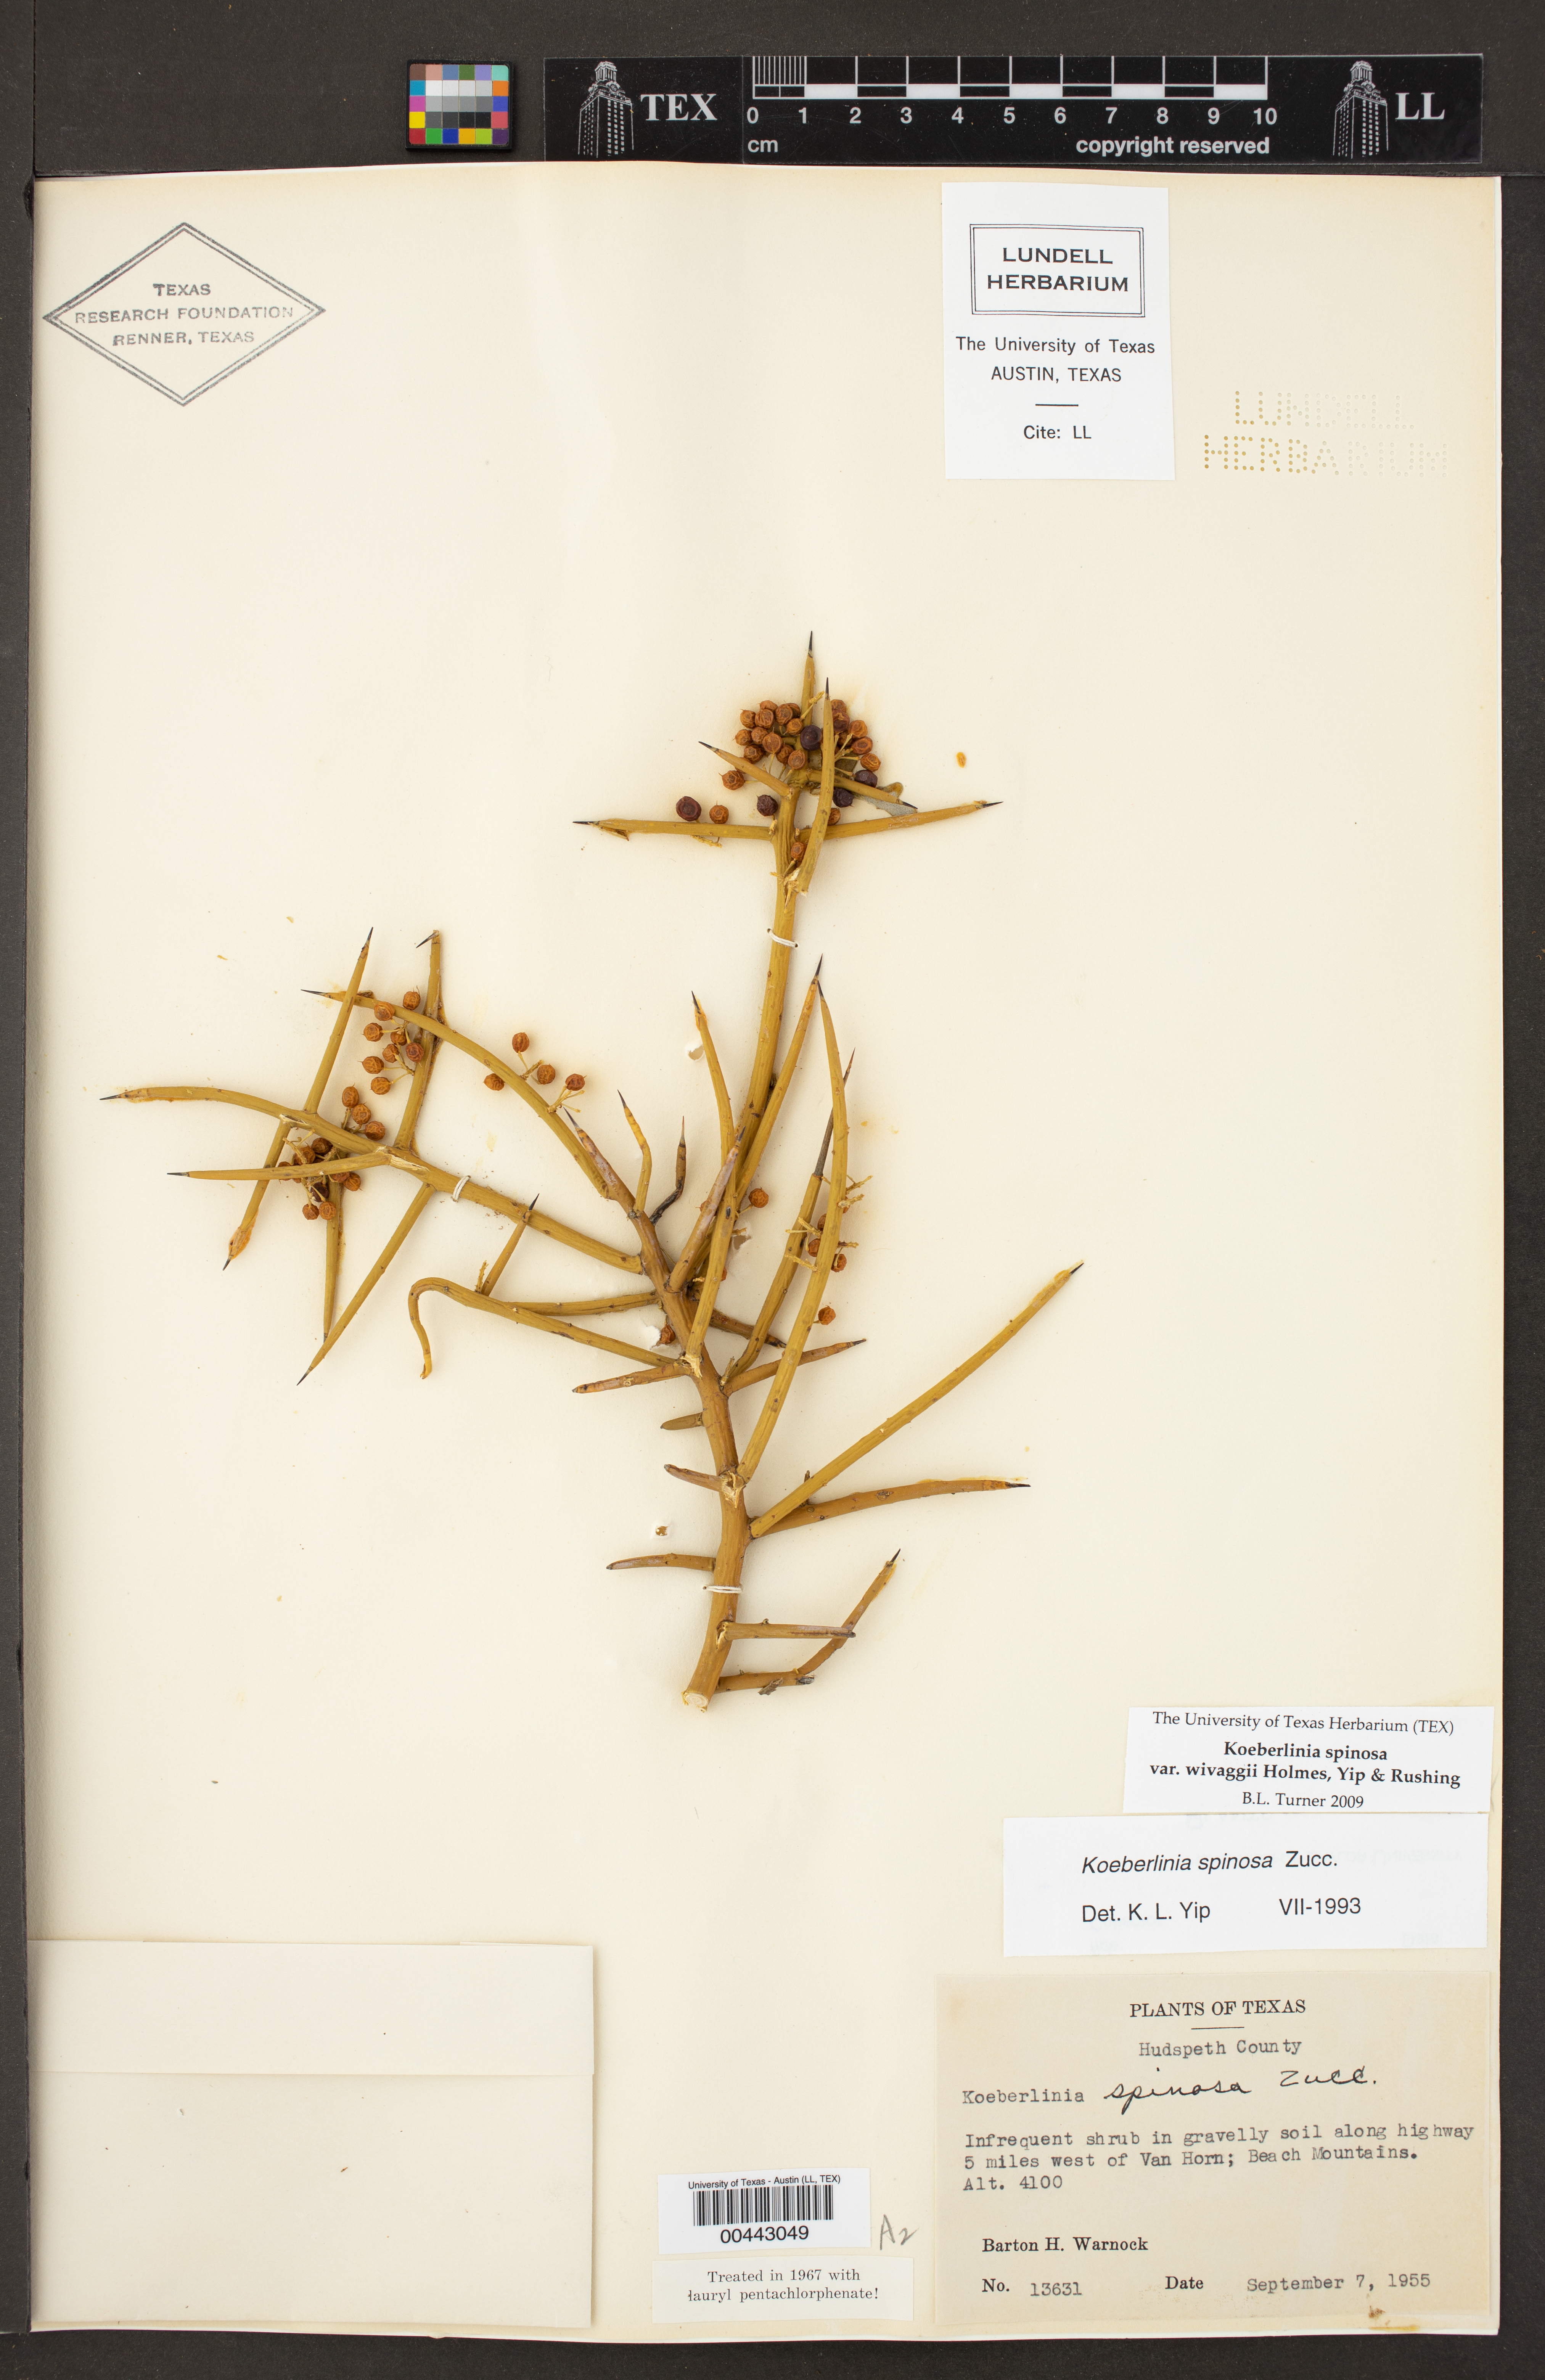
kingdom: Plantae
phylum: Tracheophyta
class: Magnoliopsida
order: Brassicales
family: Koeberliniaceae
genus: Koeberlinia
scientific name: Koeberlinia spinosa
